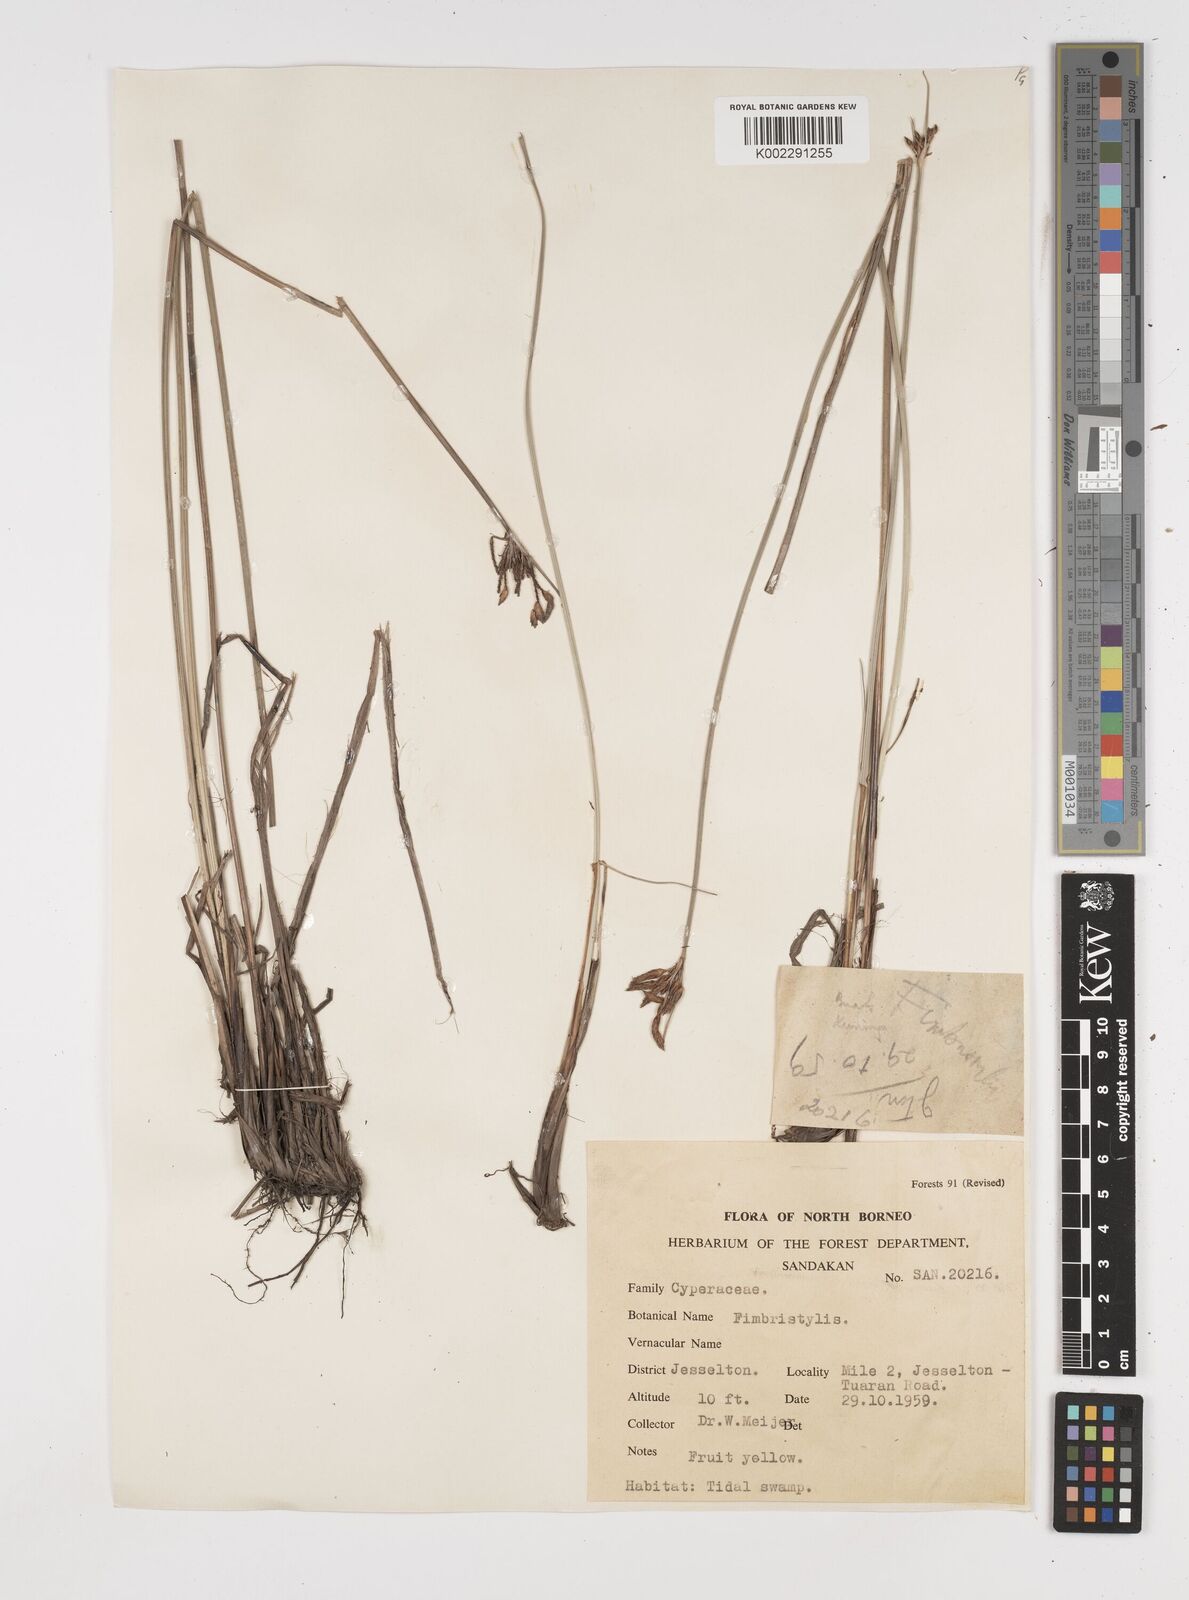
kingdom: Plantae
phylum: Tracheophyta
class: Liliopsida
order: Poales
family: Cyperaceae
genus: Fimbristylis
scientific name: Fimbristylis
